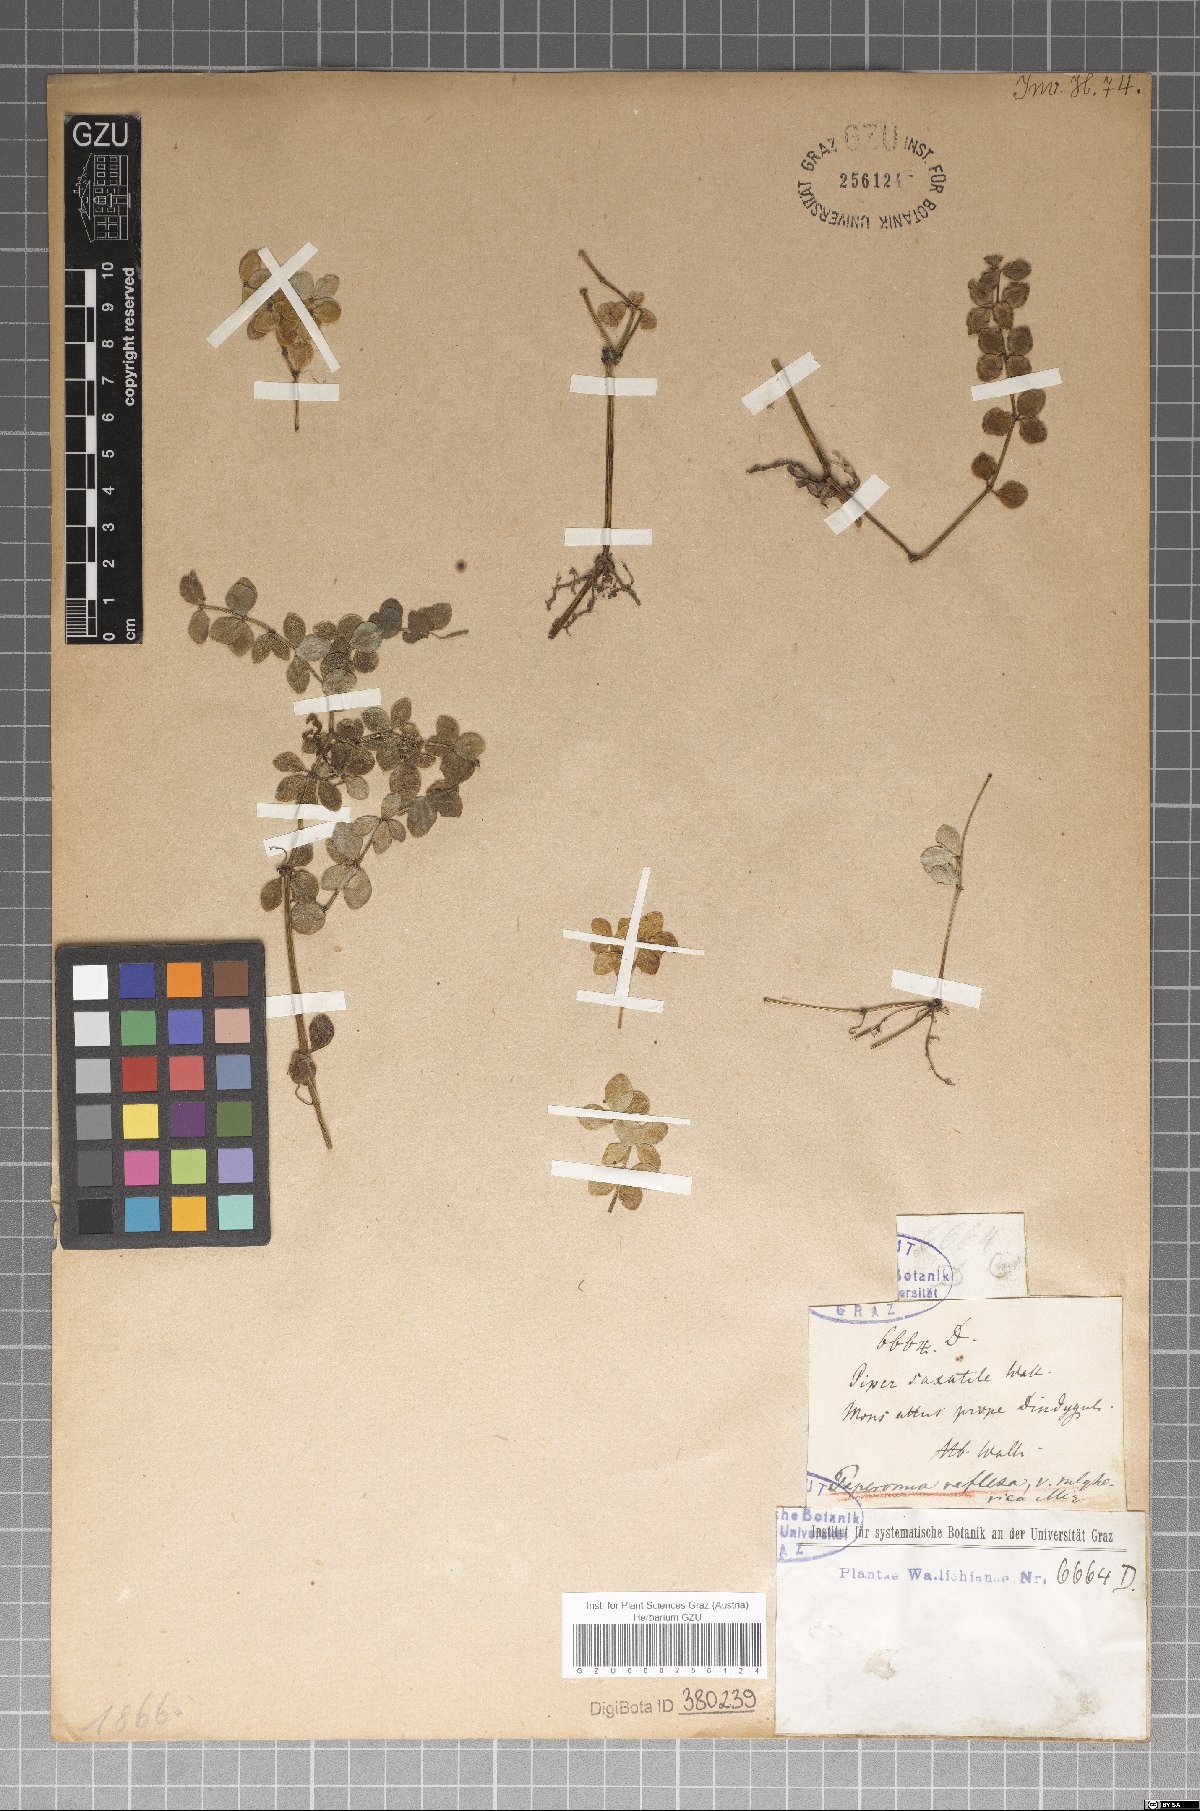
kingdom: Plantae
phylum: Tracheophyta
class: Magnoliopsida
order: Piperales
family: Piperaceae
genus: Peperomia
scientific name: Peperomia tetraphylla
